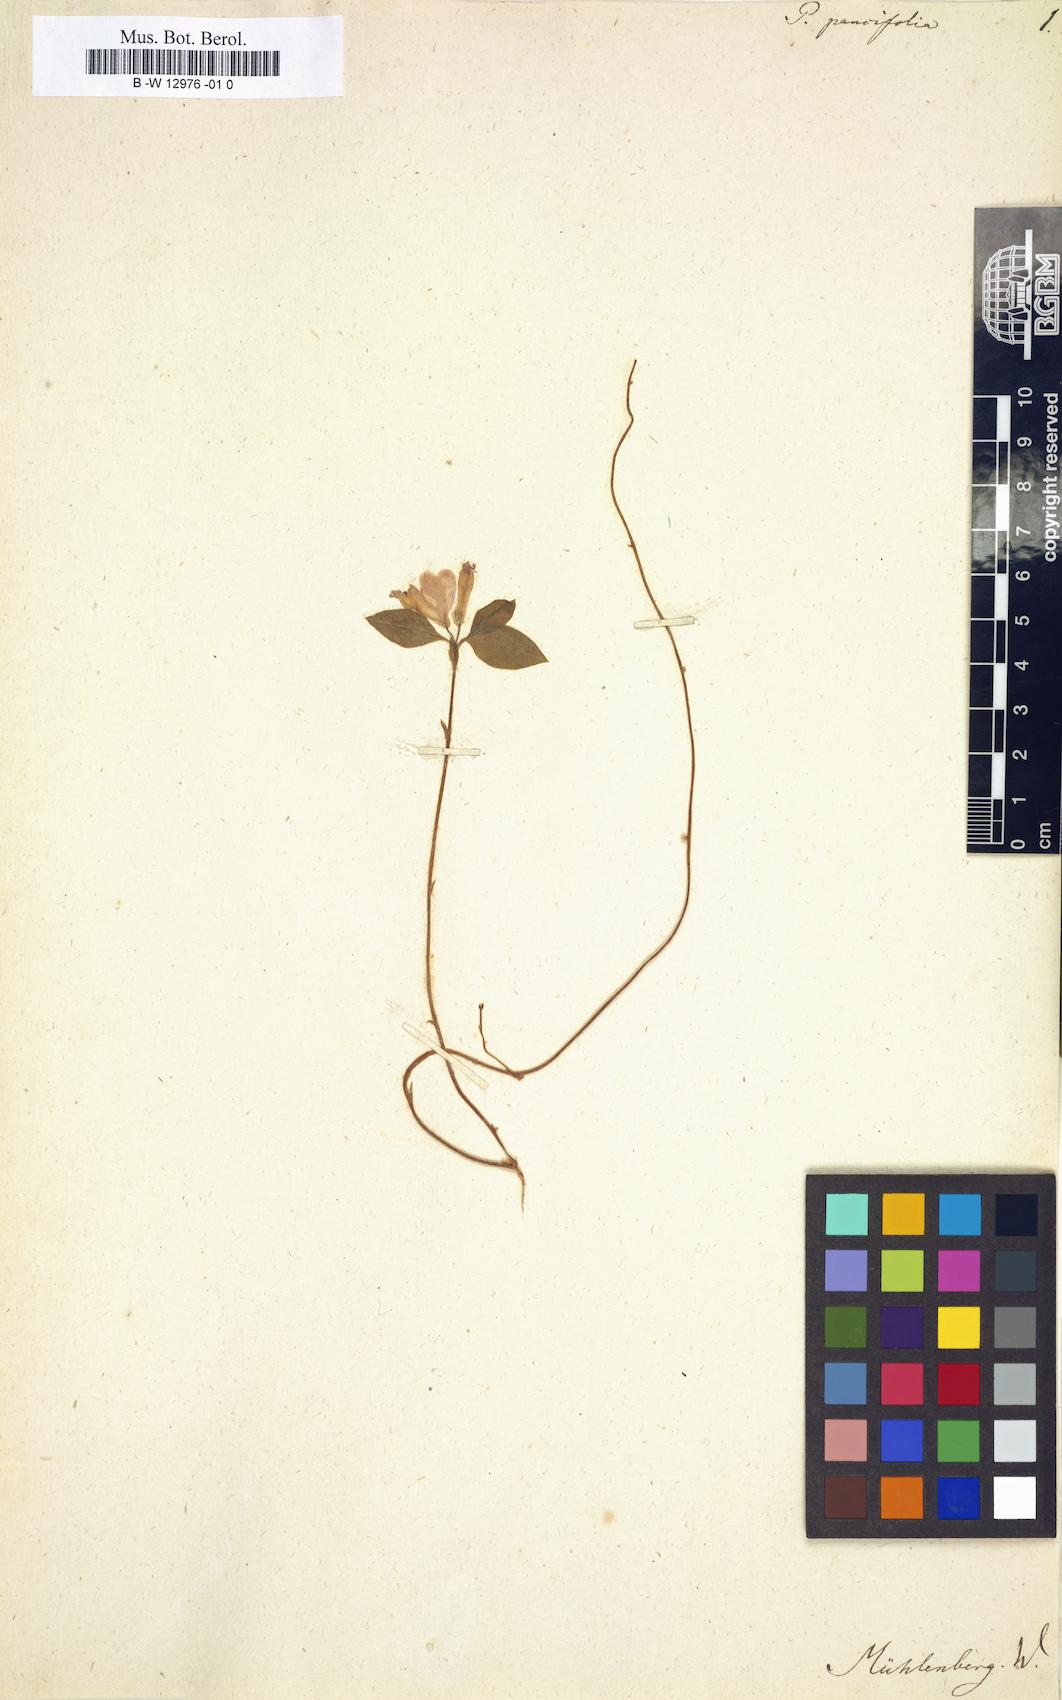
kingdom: Plantae
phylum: Tracheophyta
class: Magnoliopsida
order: Fabales
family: Polygalaceae
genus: Polygaloides
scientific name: Polygaloides paucifolia
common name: Bird-on-the-wing
